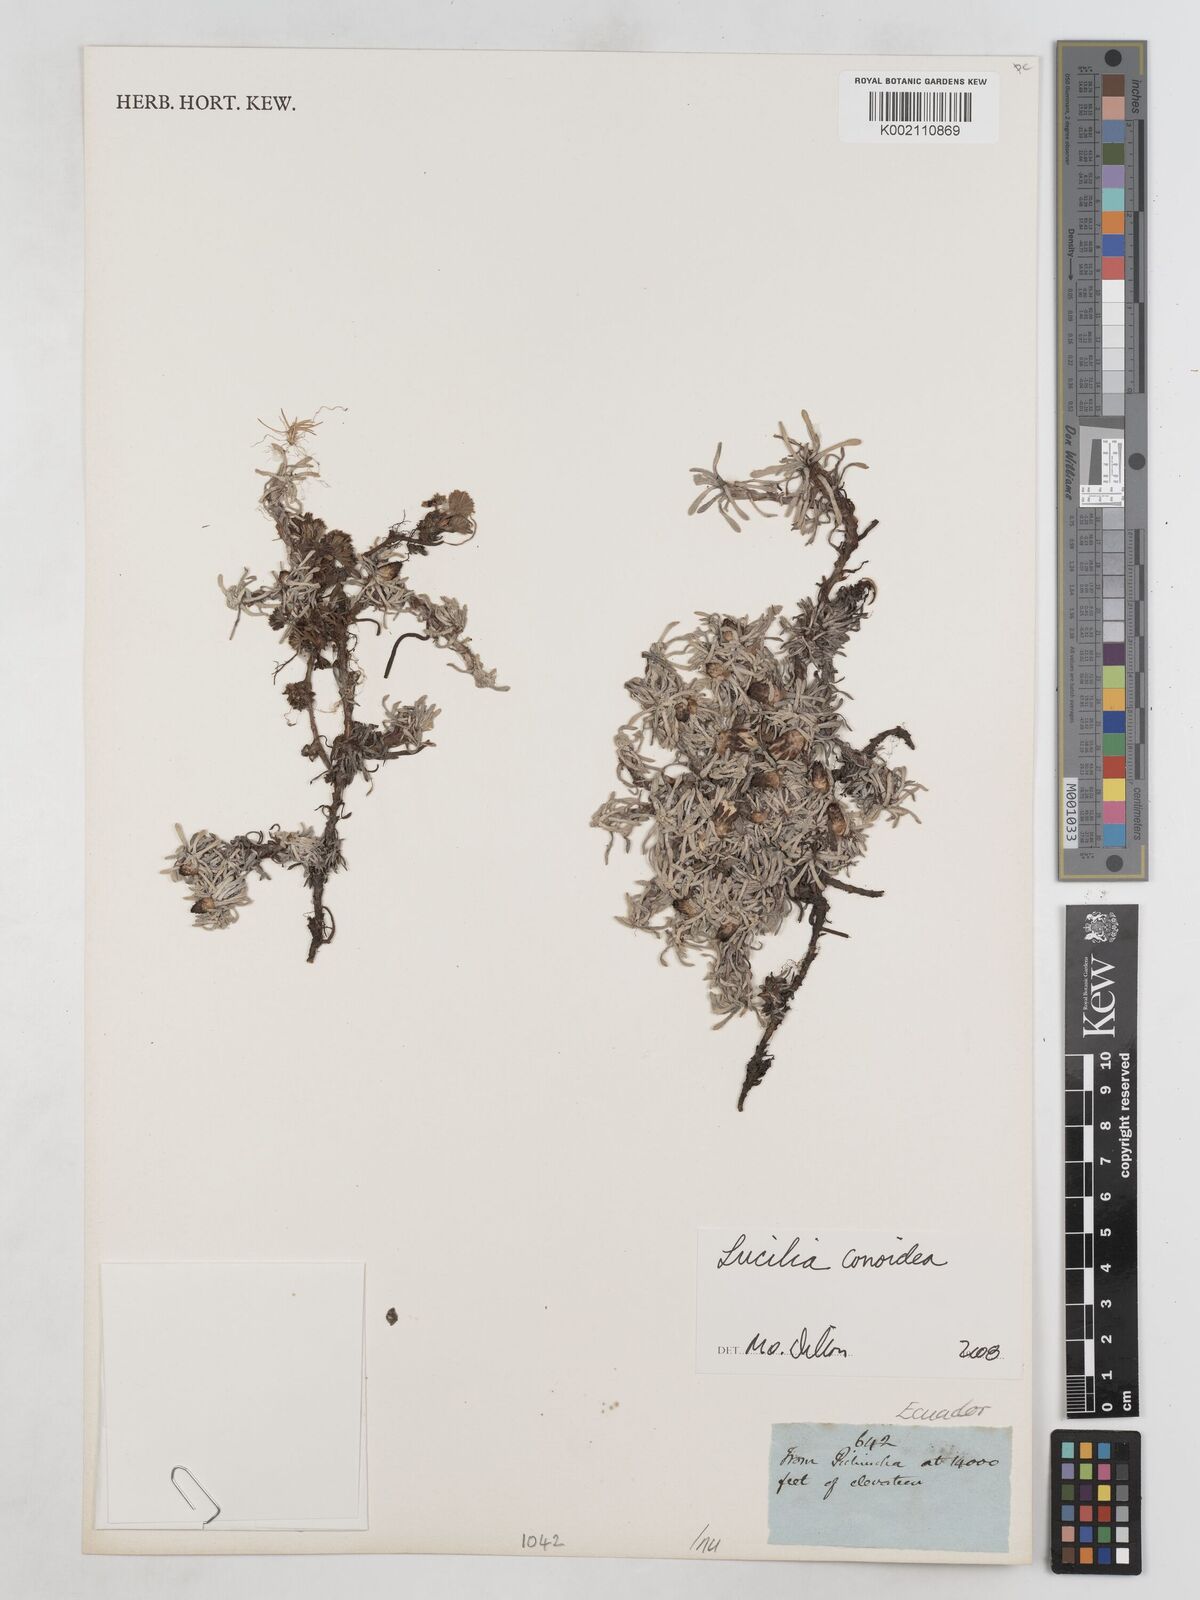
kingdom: Plantae
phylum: Tracheophyta
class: Magnoliopsida
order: Asterales
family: Asteraceae
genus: Mniodes
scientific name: Mniodes kunthiana
